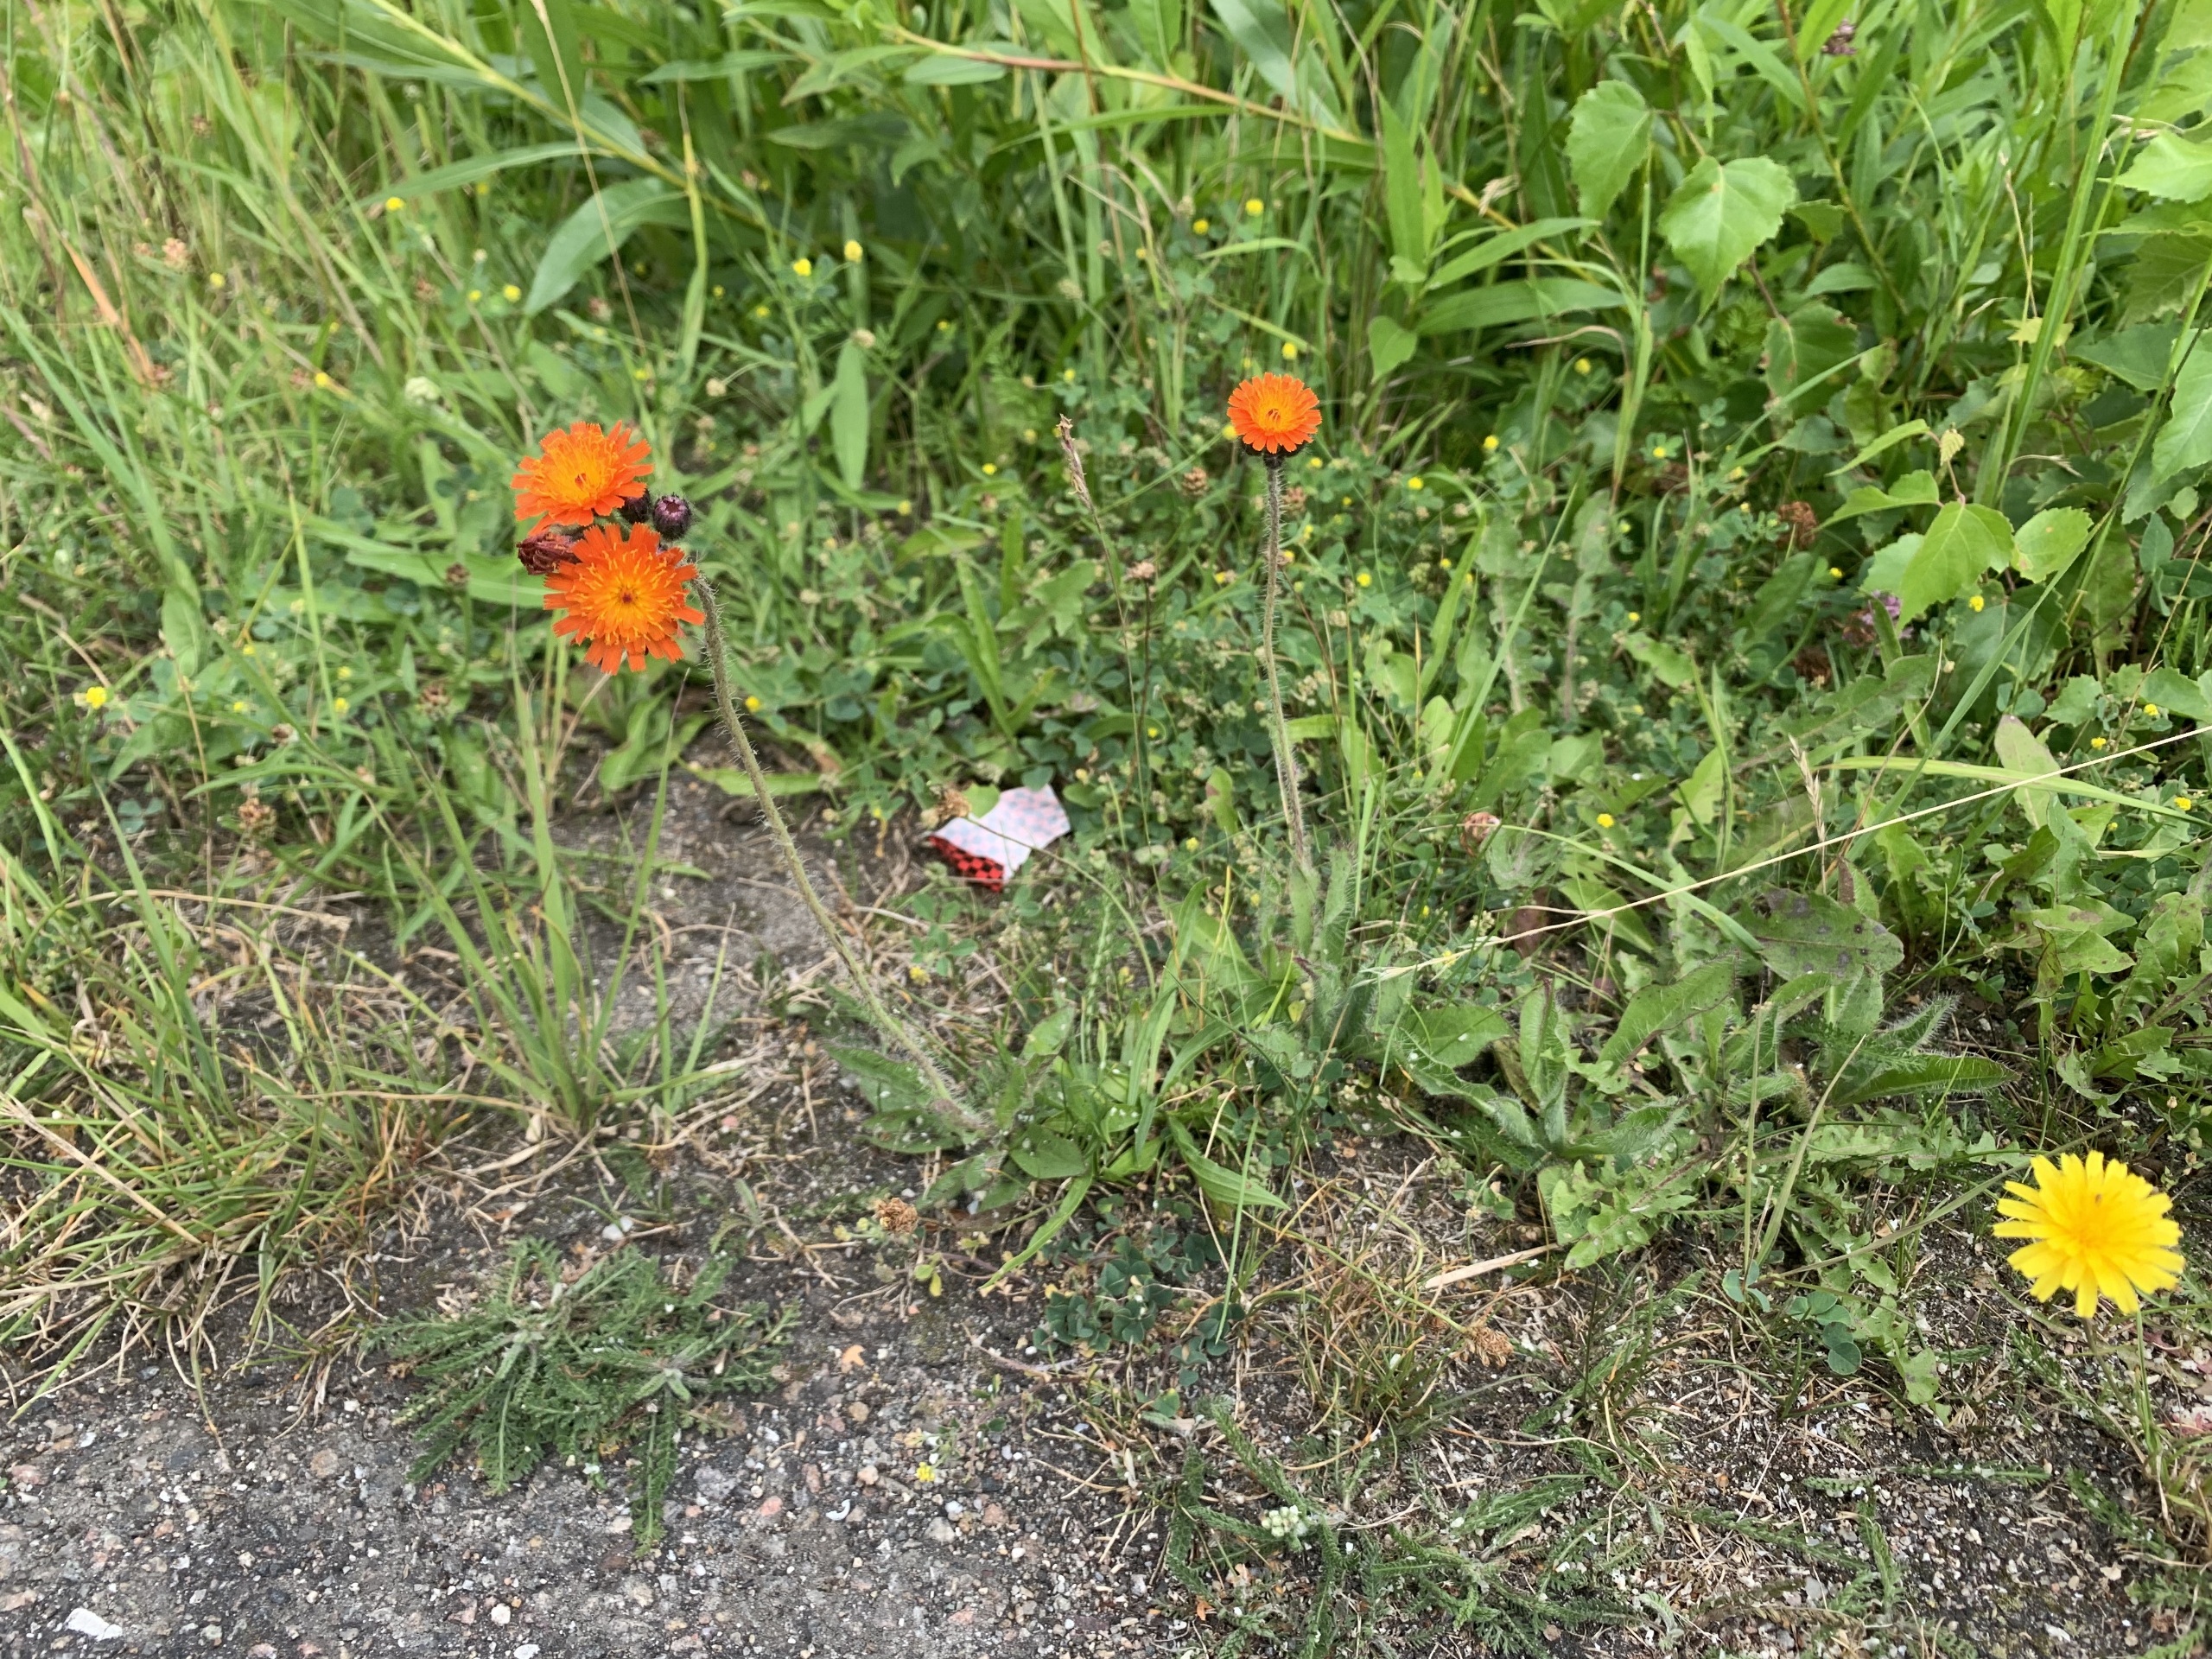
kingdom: Plantae
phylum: Tracheophyta
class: Magnoliopsida
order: Asterales
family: Asteraceae
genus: Pilosella
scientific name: Pilosella aurantiaca
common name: Pomerans-høgeurt
